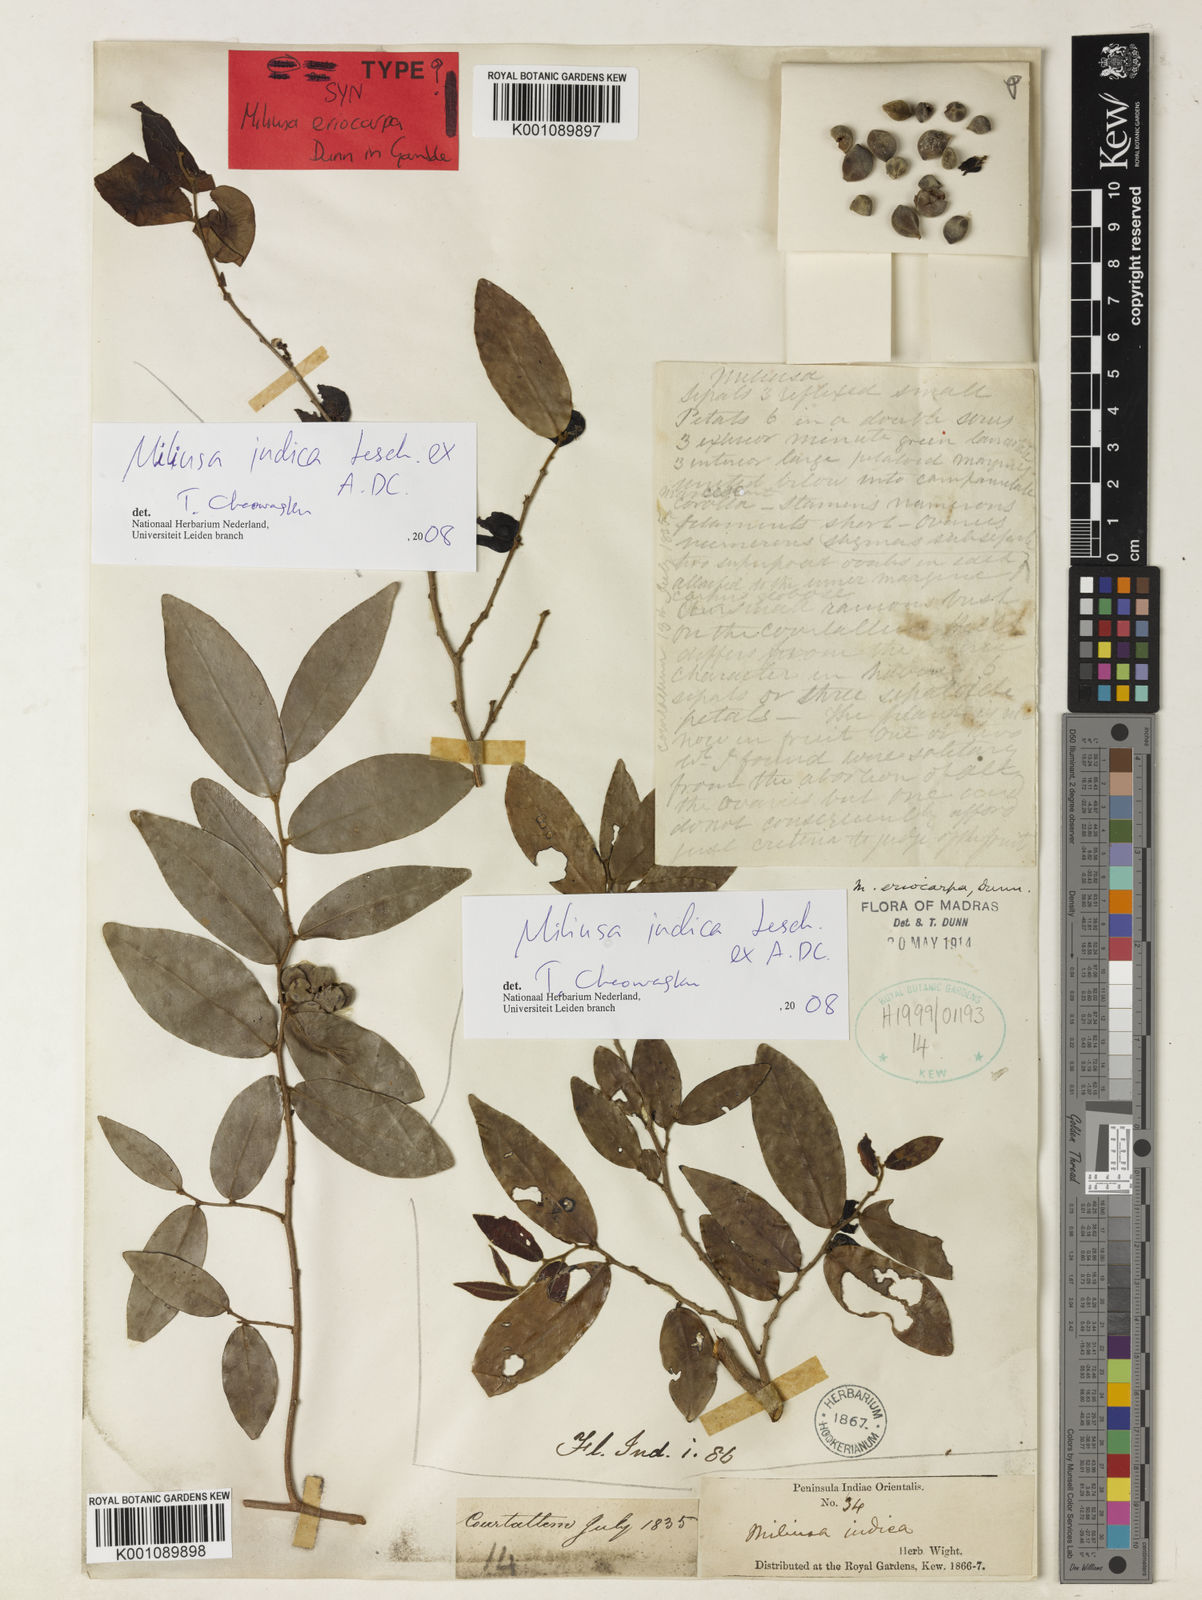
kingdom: Plantae
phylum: Tracheophyta
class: Magnoliopsida
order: Magnoliales
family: Annonaceae
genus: Miliusa
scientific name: Miliusa eriocarpa
